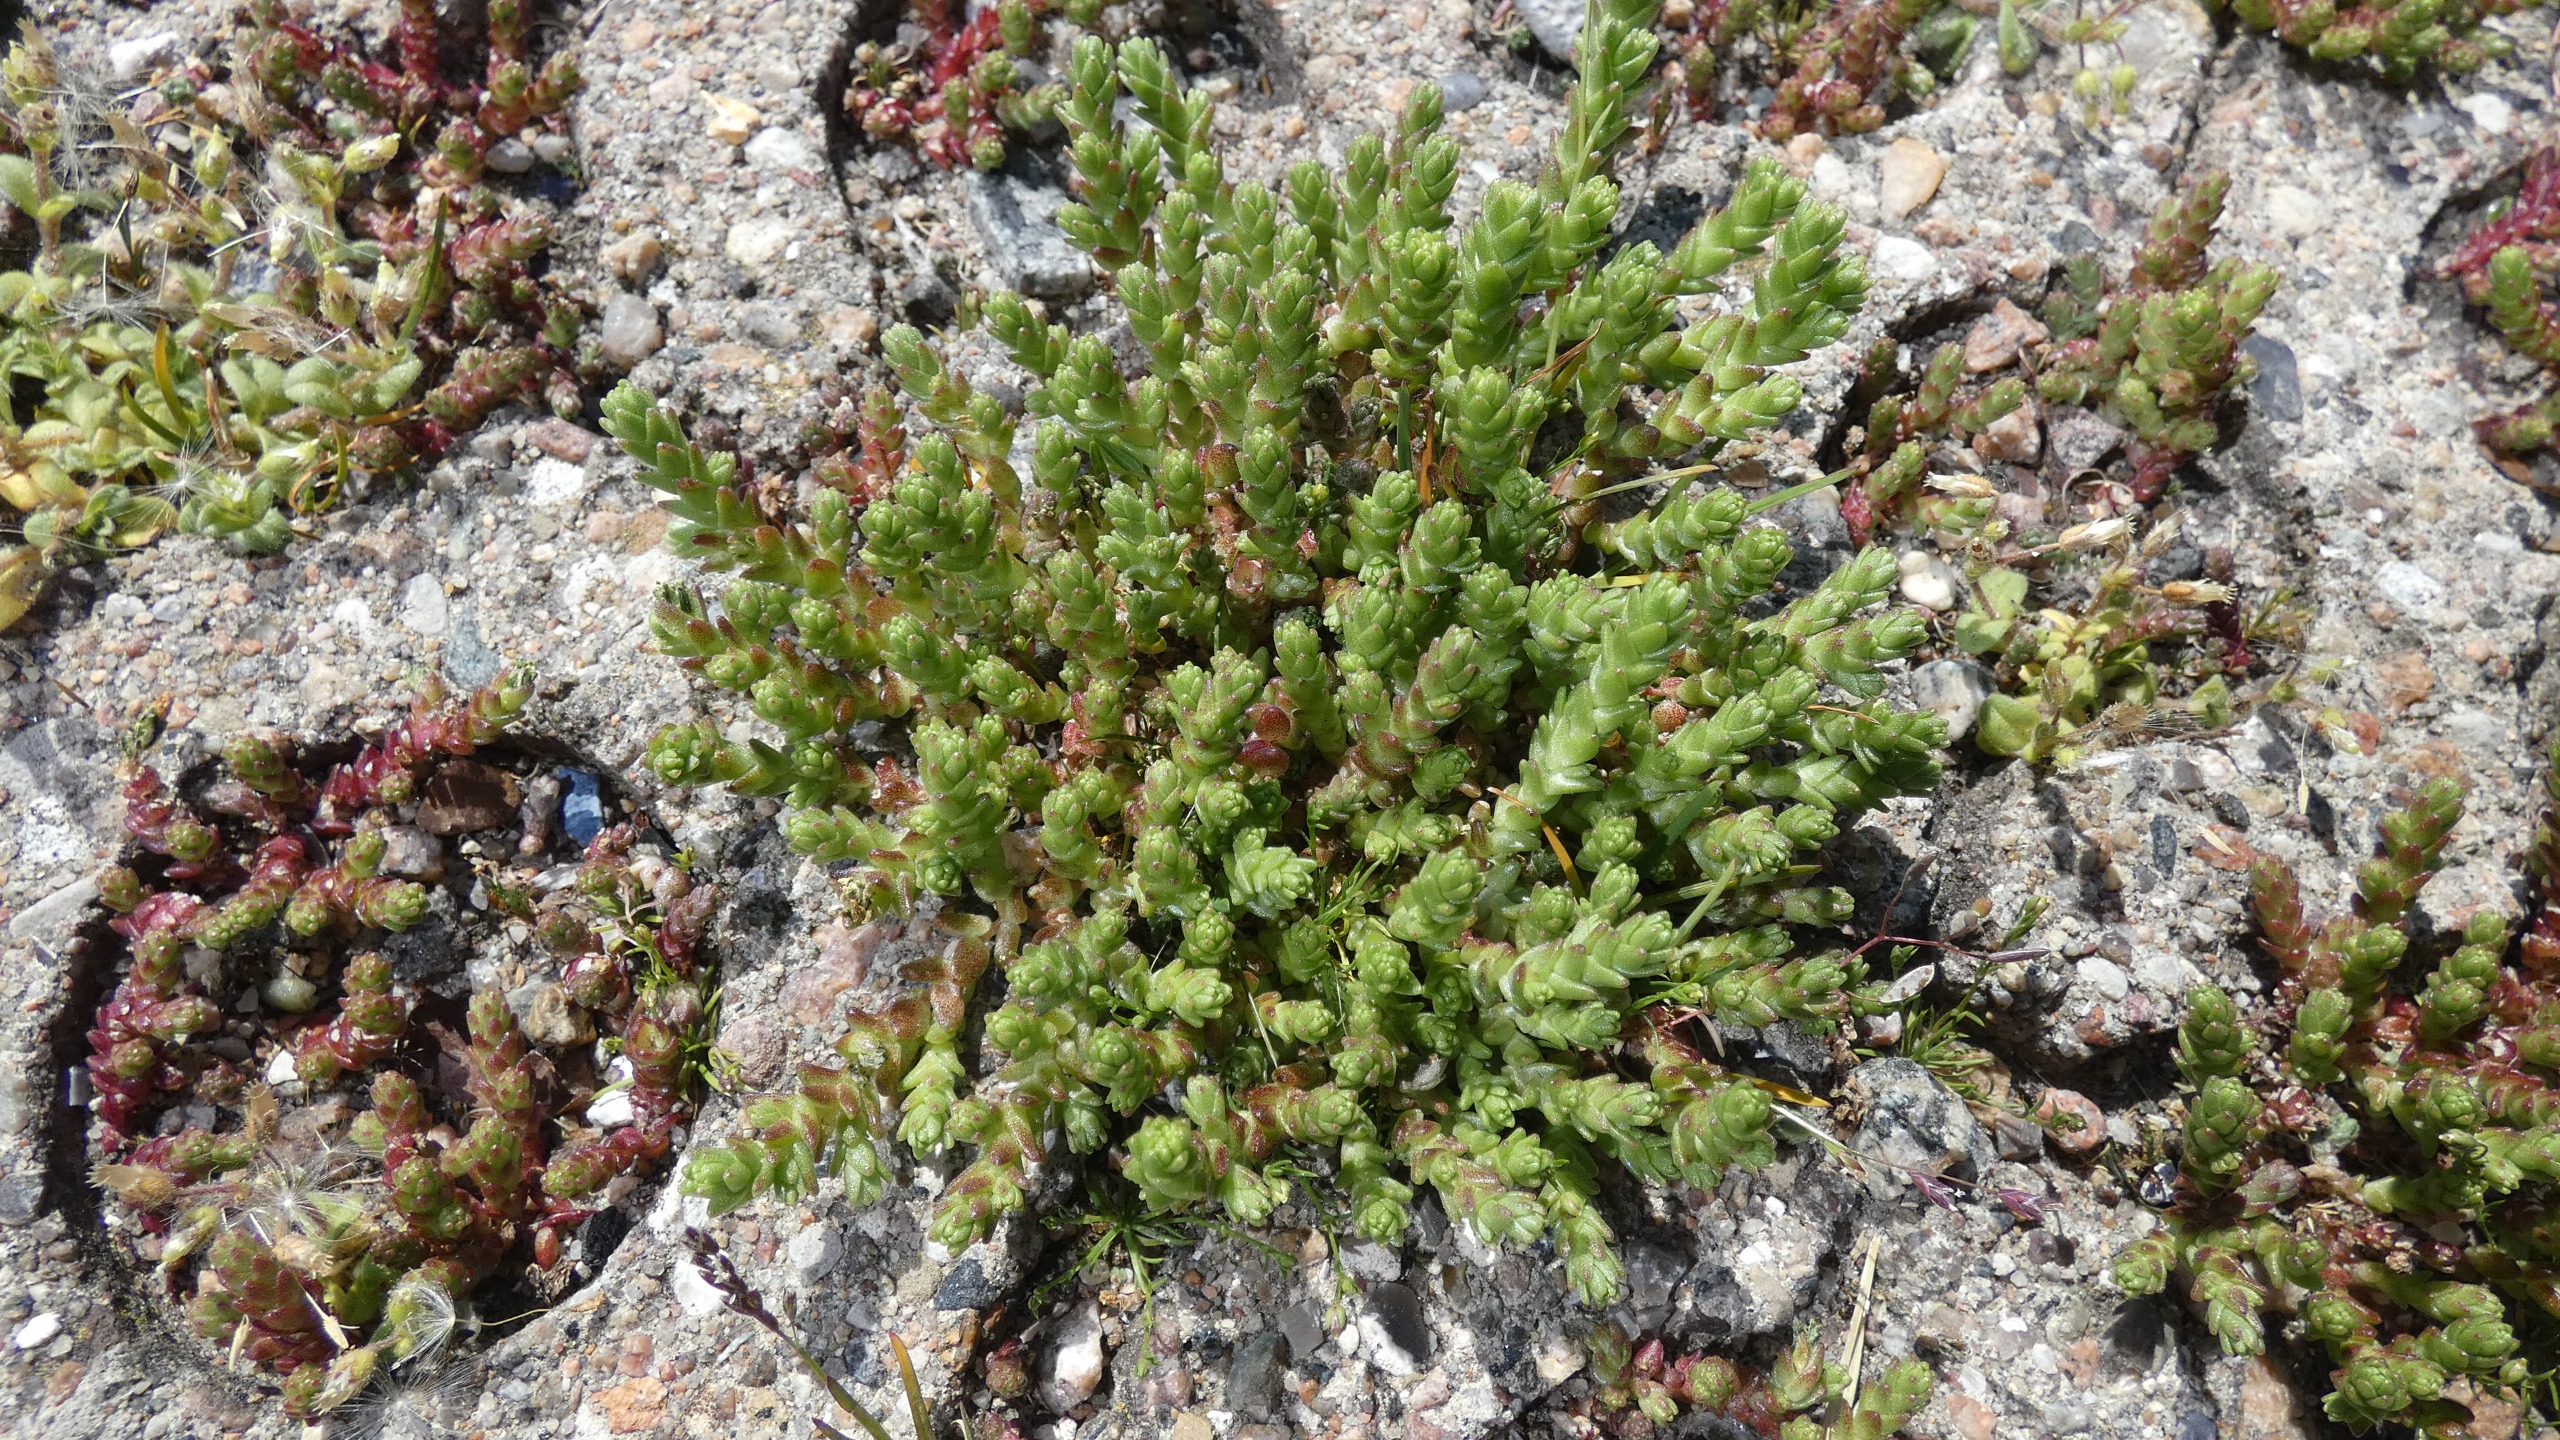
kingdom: Plantae
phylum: Tracheophyta
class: Magnoliopsida
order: Saxifragales
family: Crassulaceae
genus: Sedum
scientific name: Sedum acre
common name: Bidende stenurt
